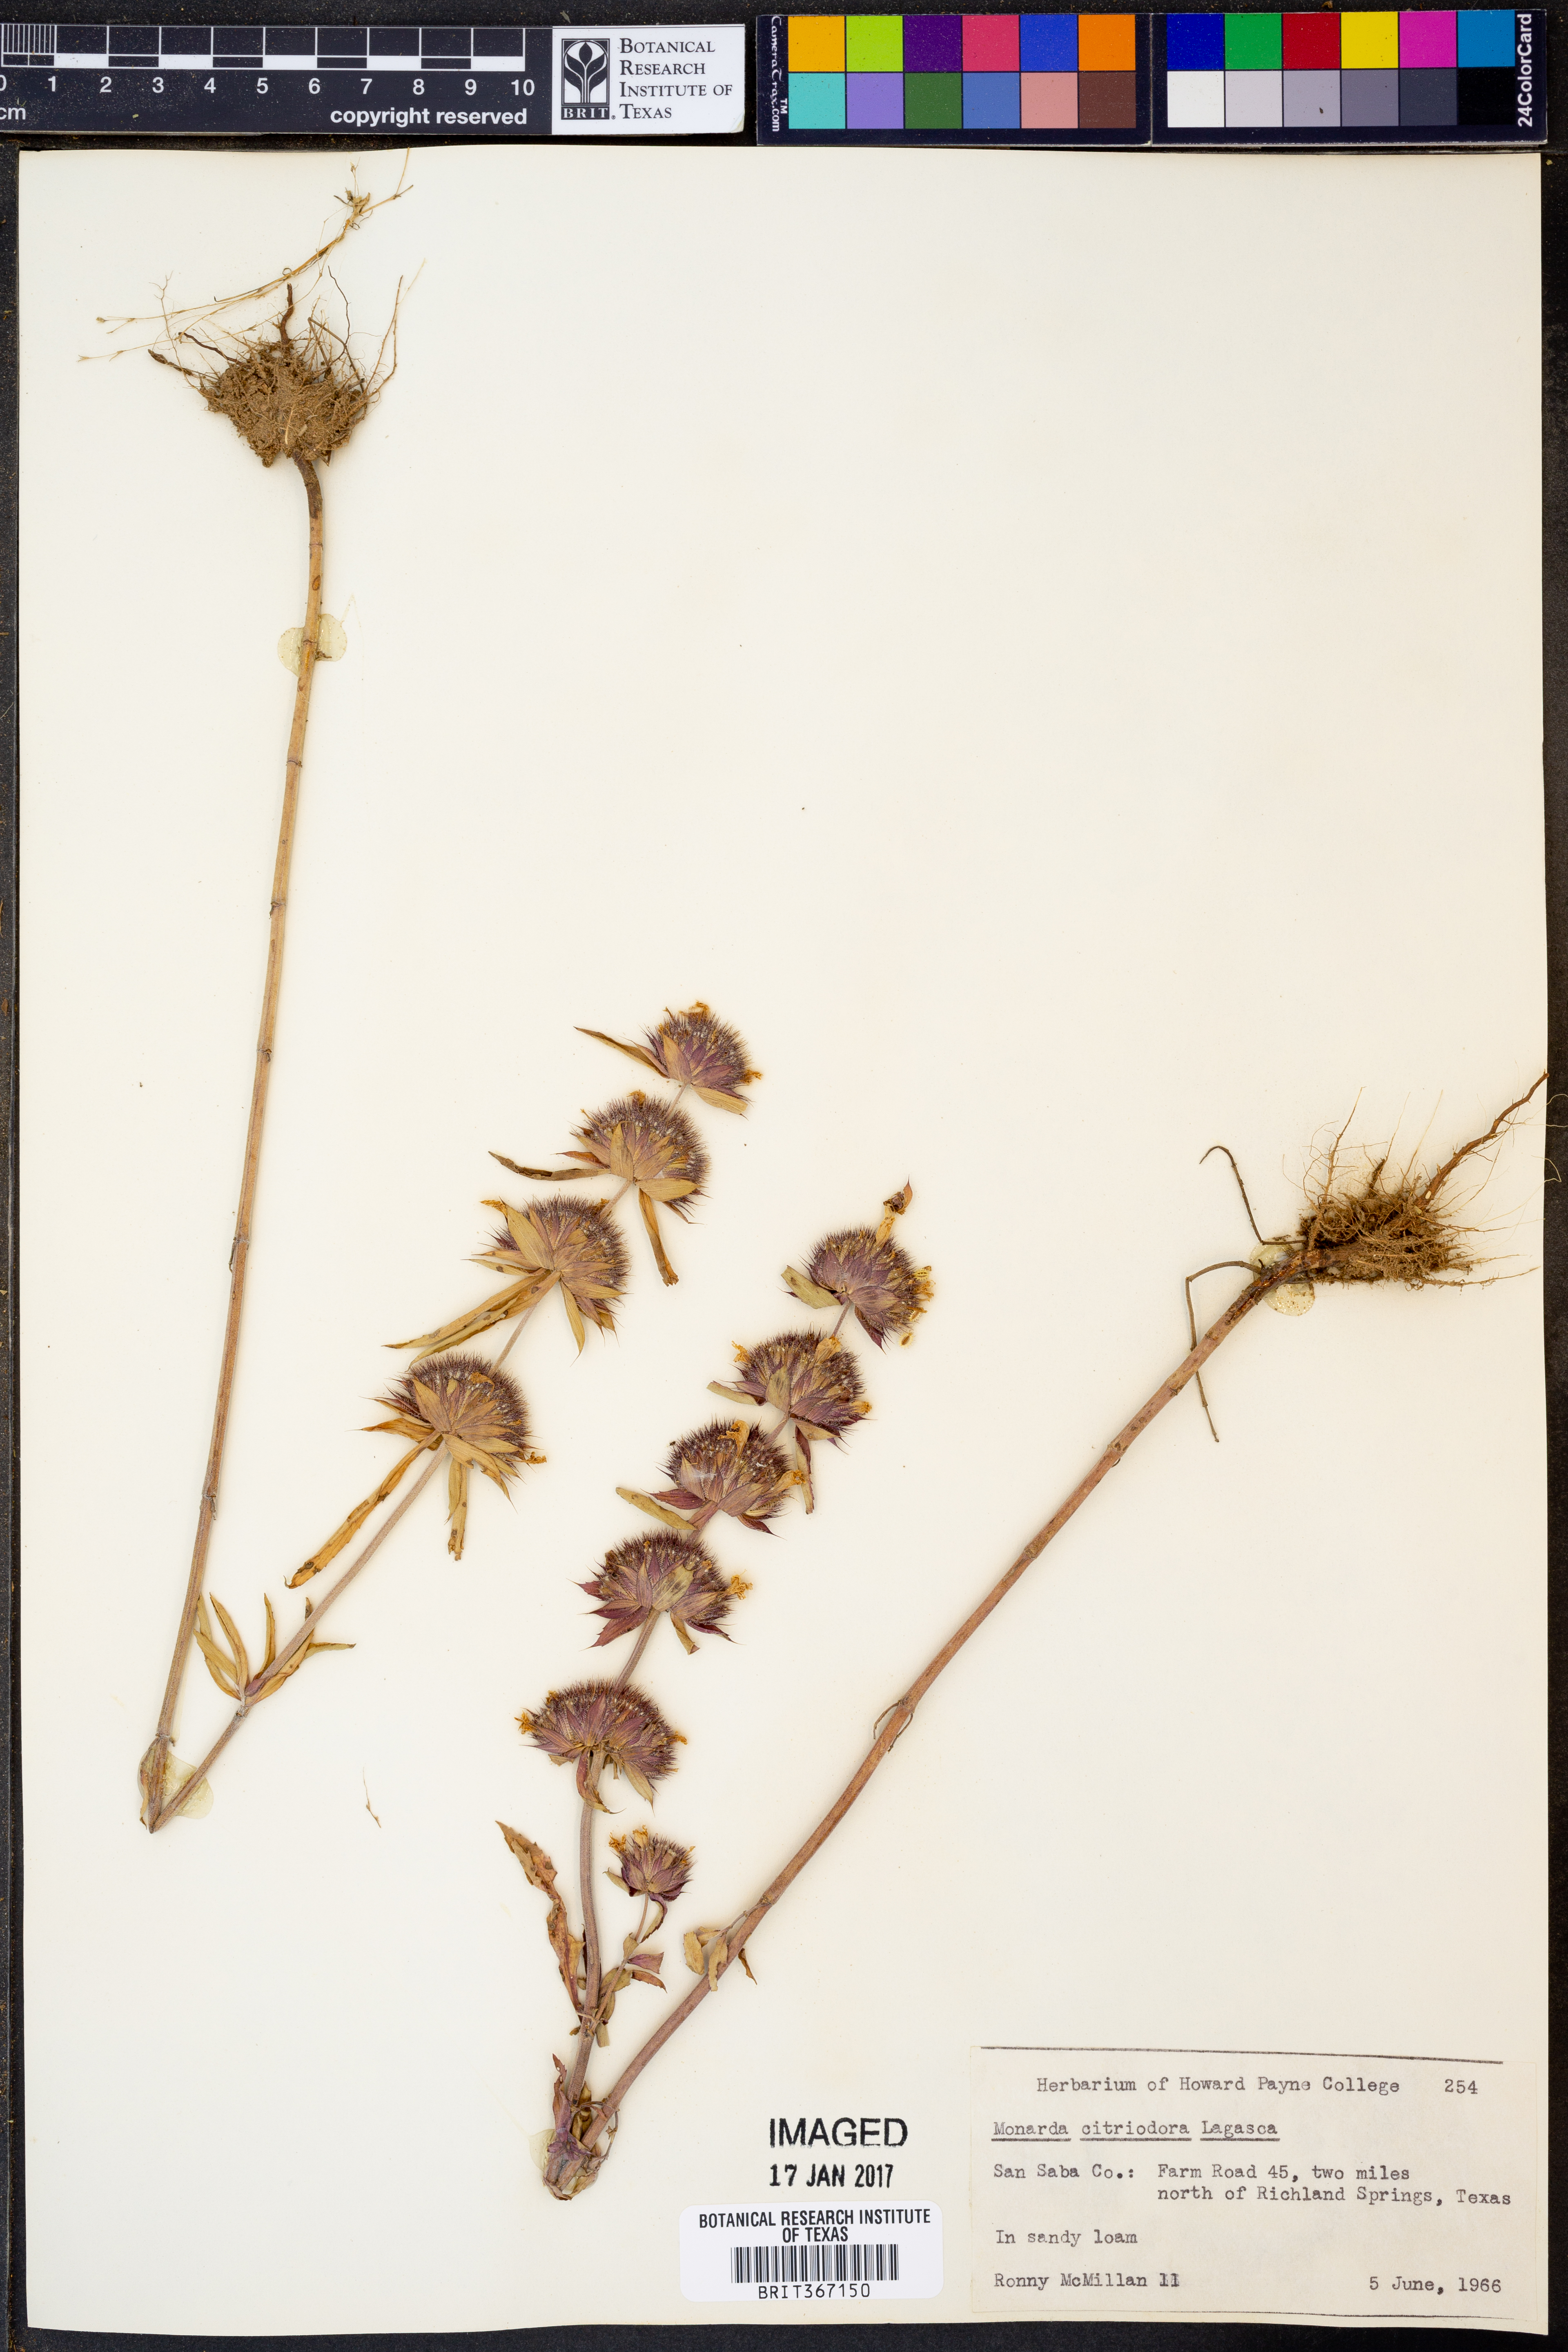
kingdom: Plantae
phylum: Tracheophyta
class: Magnoliopsida
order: Lamiales
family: Lamiaceae
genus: Monarda
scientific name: Monarda citriodora
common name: Lemon beebalm
